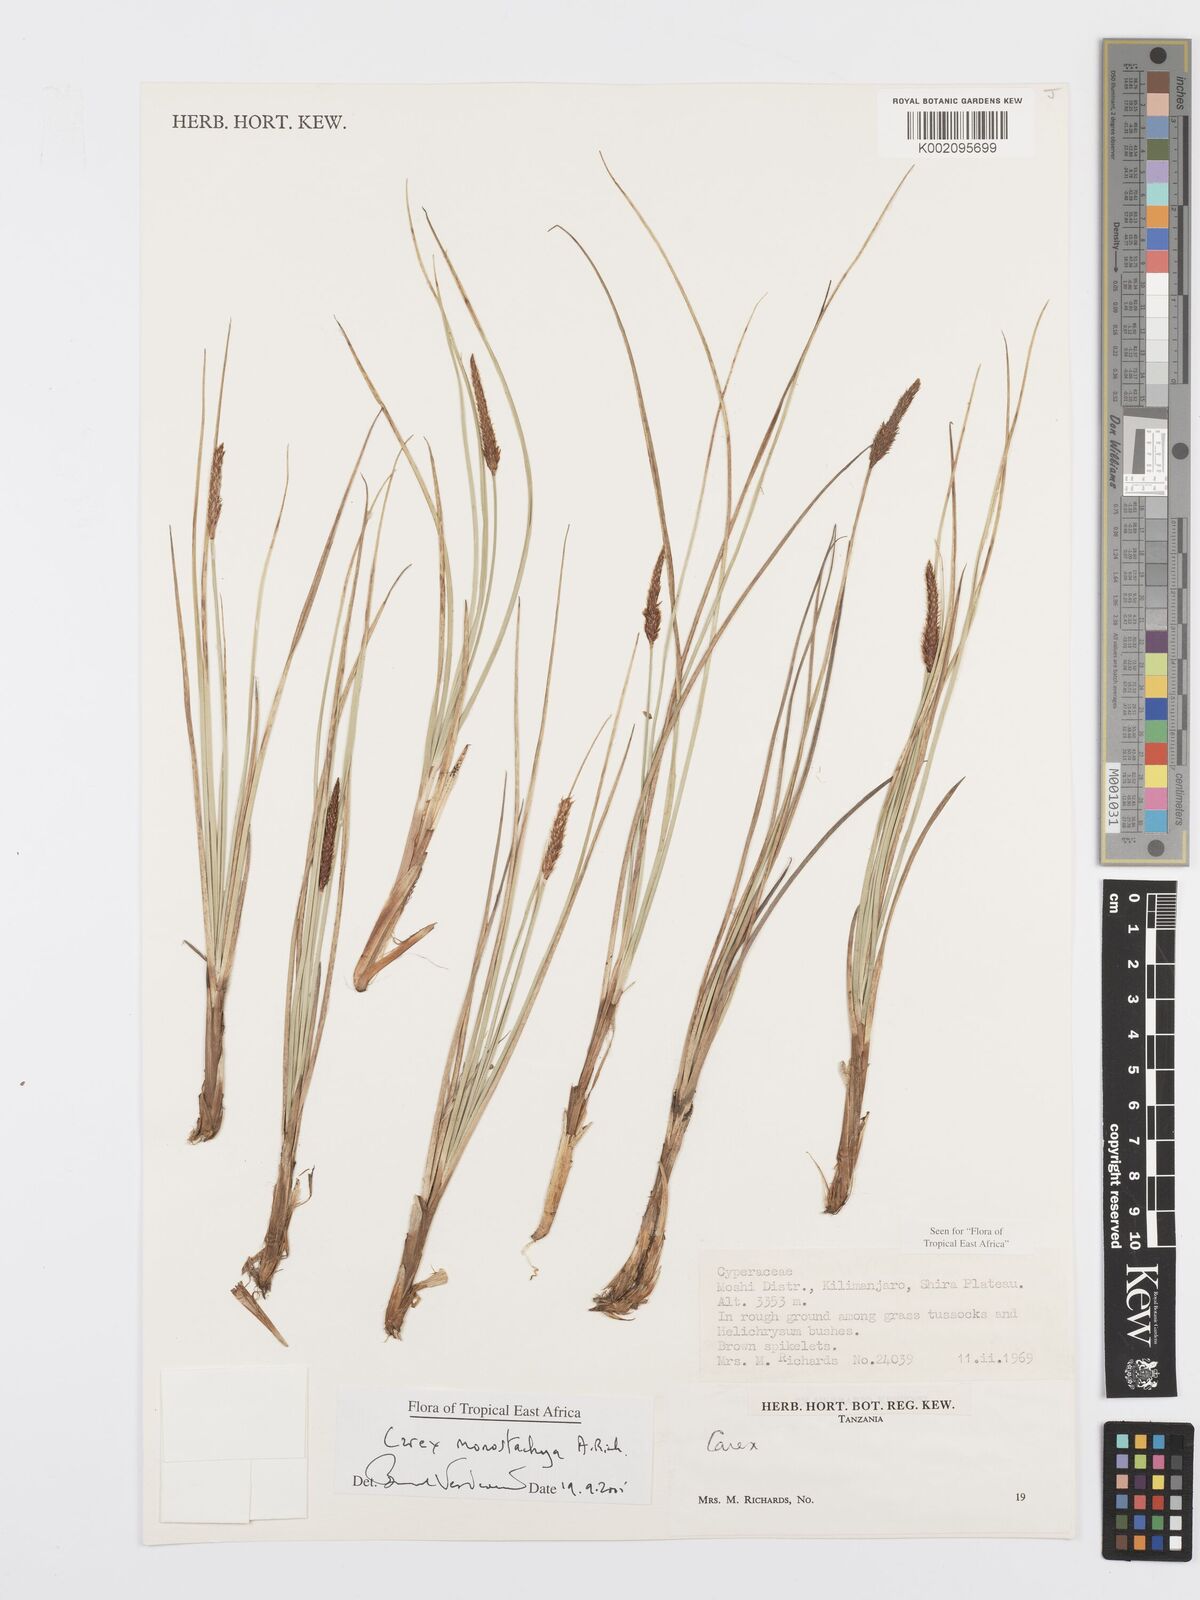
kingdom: Plantae
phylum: Tracheophyta
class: Liliopsida
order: Poales
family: Cyperaceae
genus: Carex
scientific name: Carex monostachya
